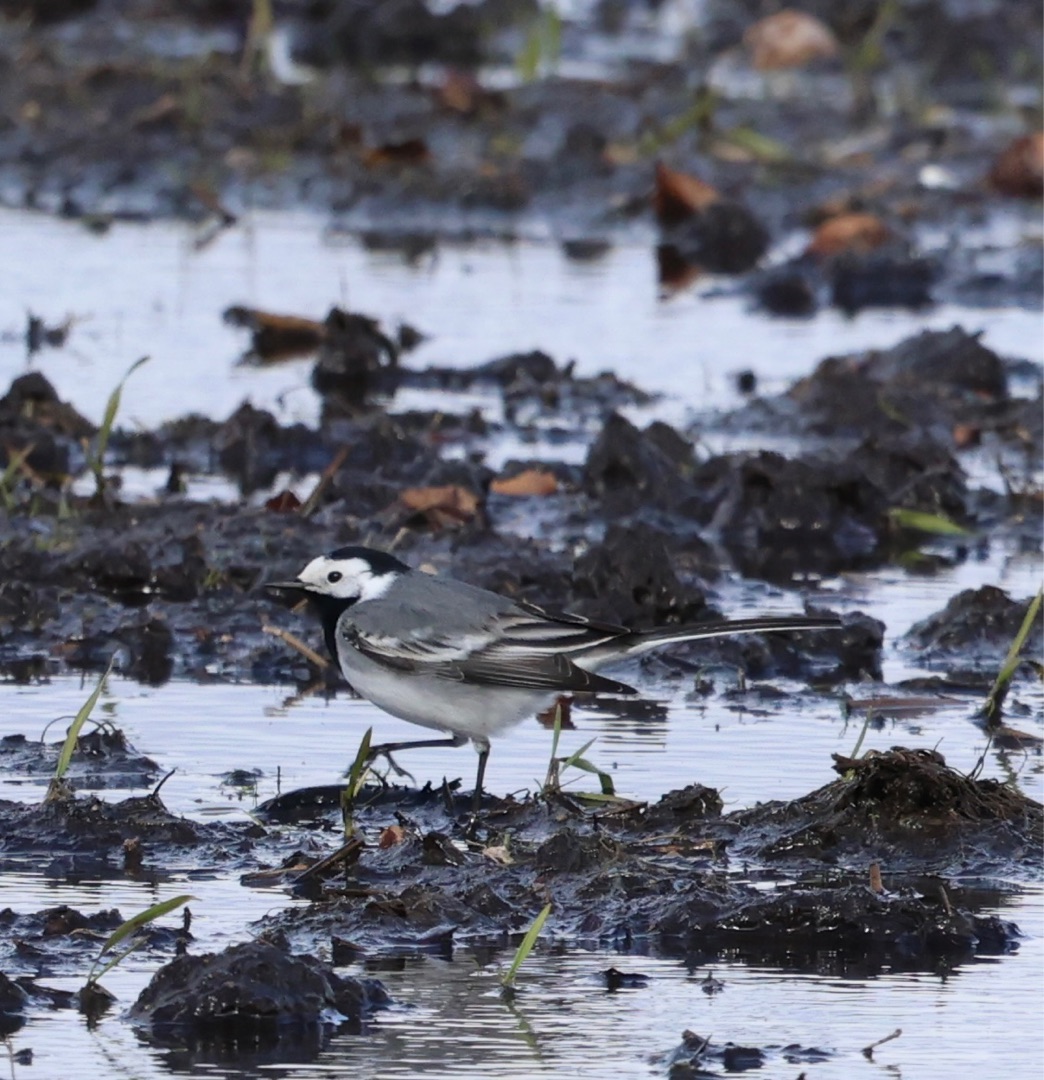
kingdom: Animalia
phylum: Chordata
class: Aves
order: Passeriformes
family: Motacillidae
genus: Motacilla
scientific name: Motacilla alba
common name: Hvid vipstjert
